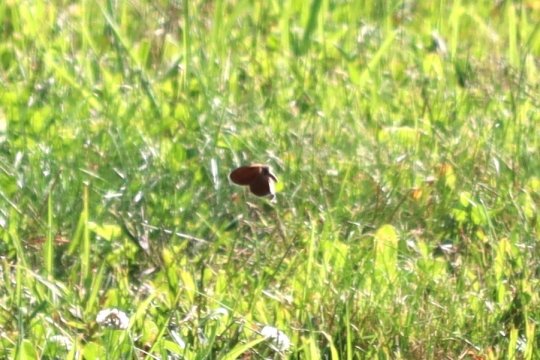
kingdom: Animalia
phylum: Arthropoda
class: Insecta
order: Lepidoptera
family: Nymphalidae
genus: Coenonympha
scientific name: Coenonympha california
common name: California Ringlet
